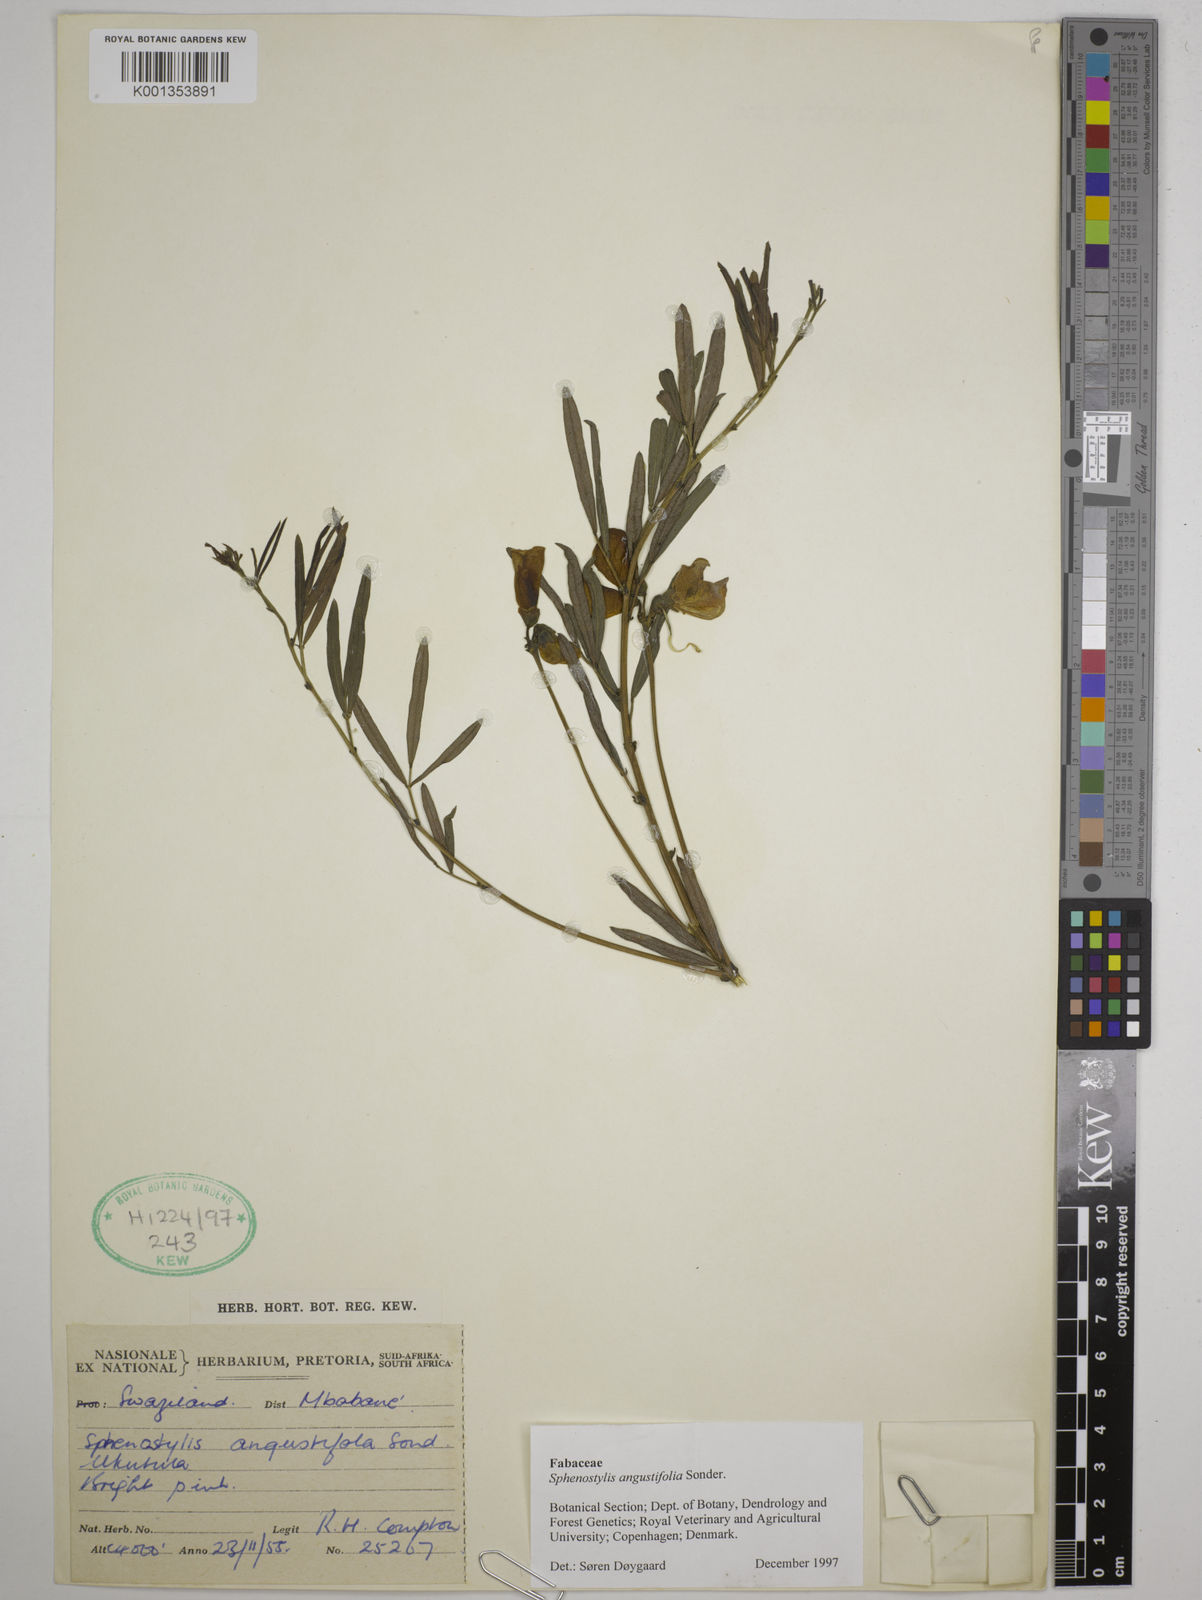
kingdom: Plantae
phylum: Tracheophyta
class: Magnoliopsida
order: Fabales
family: Fabaceae
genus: Sphenostylis
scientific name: Sphenostylis angustifolia
